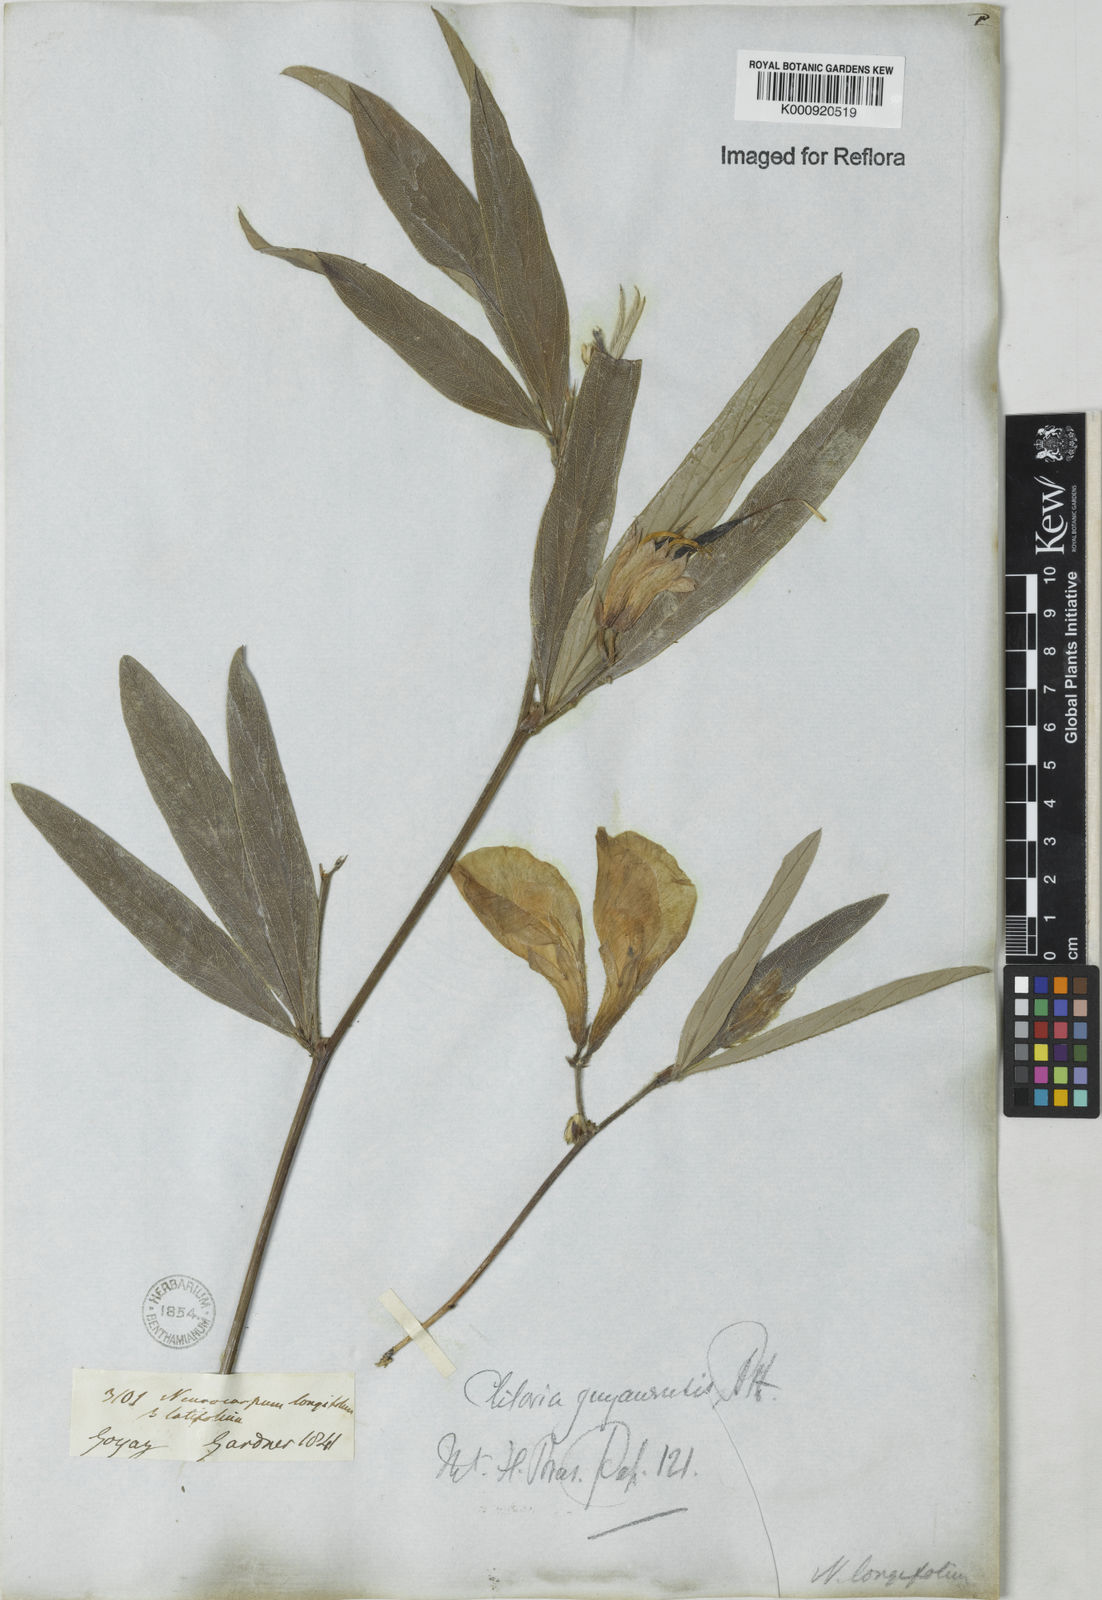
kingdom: Plantae
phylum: Tracheophyta
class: Magnoliopsida
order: Fabales
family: Fabaceae
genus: Clitoria
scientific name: Clitoria guianensis
